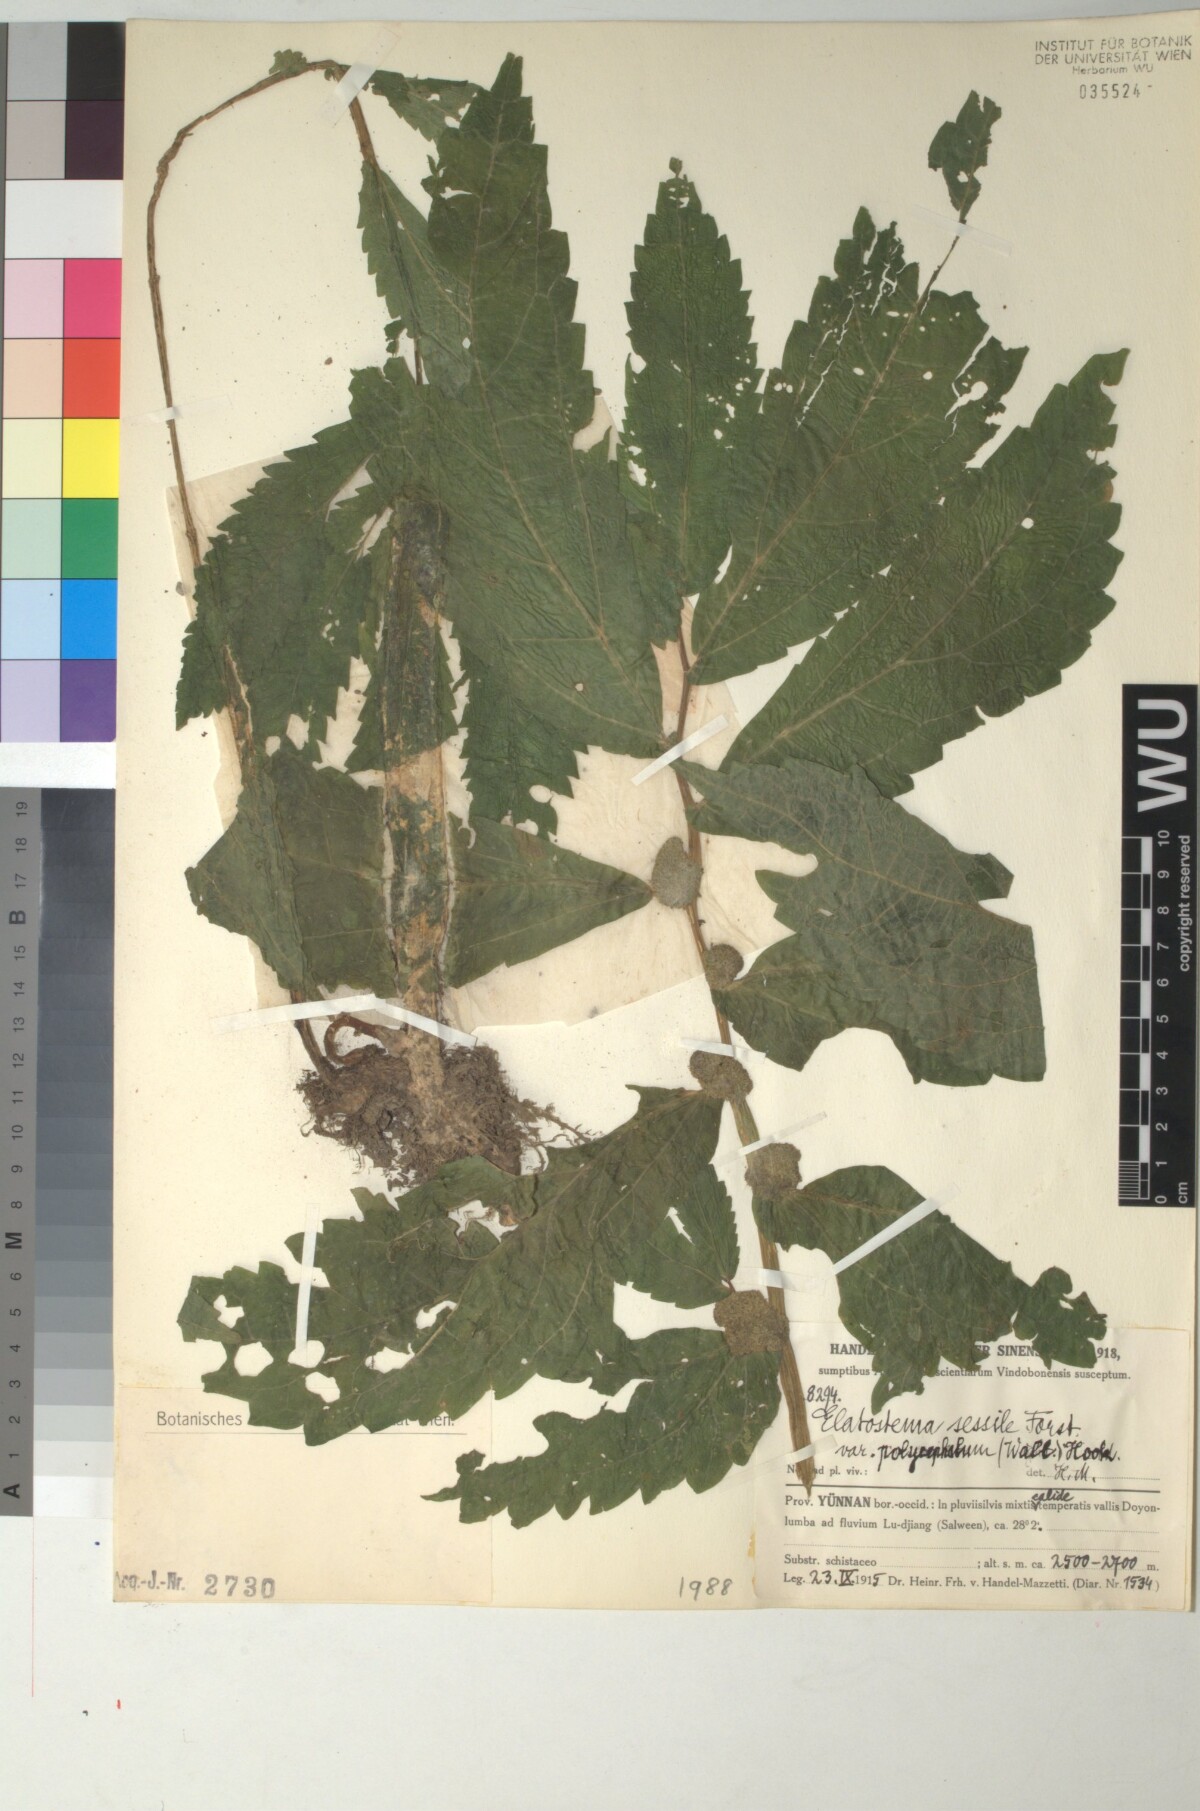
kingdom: Plantae
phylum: Tracheophyta
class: Magnoliopsida
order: Rosales
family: Urticaceae
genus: Elatostema
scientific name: Elatostema cuspidatum
